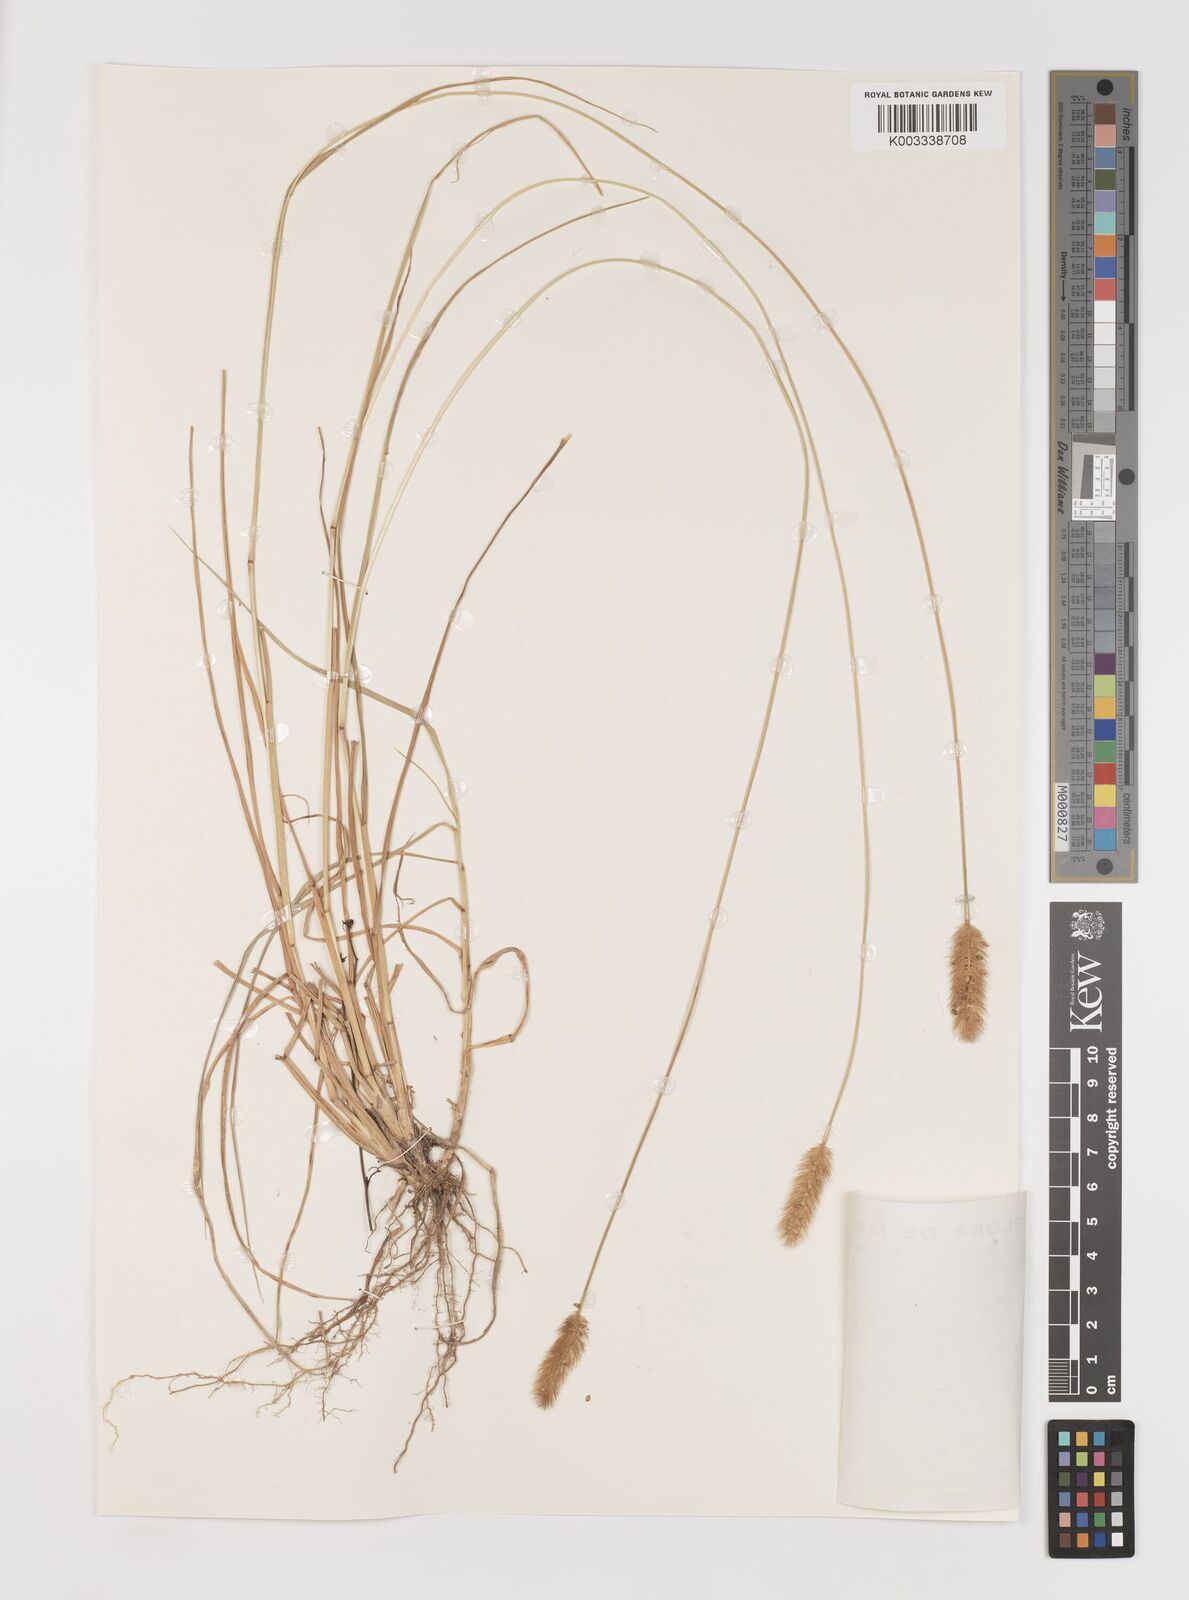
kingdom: Plantae
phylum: Tracheophyta
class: Liliopsida
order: Poales
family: Poaceae
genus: Setaria
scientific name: Setaria parviflora
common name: Knotroot bristle-grass
